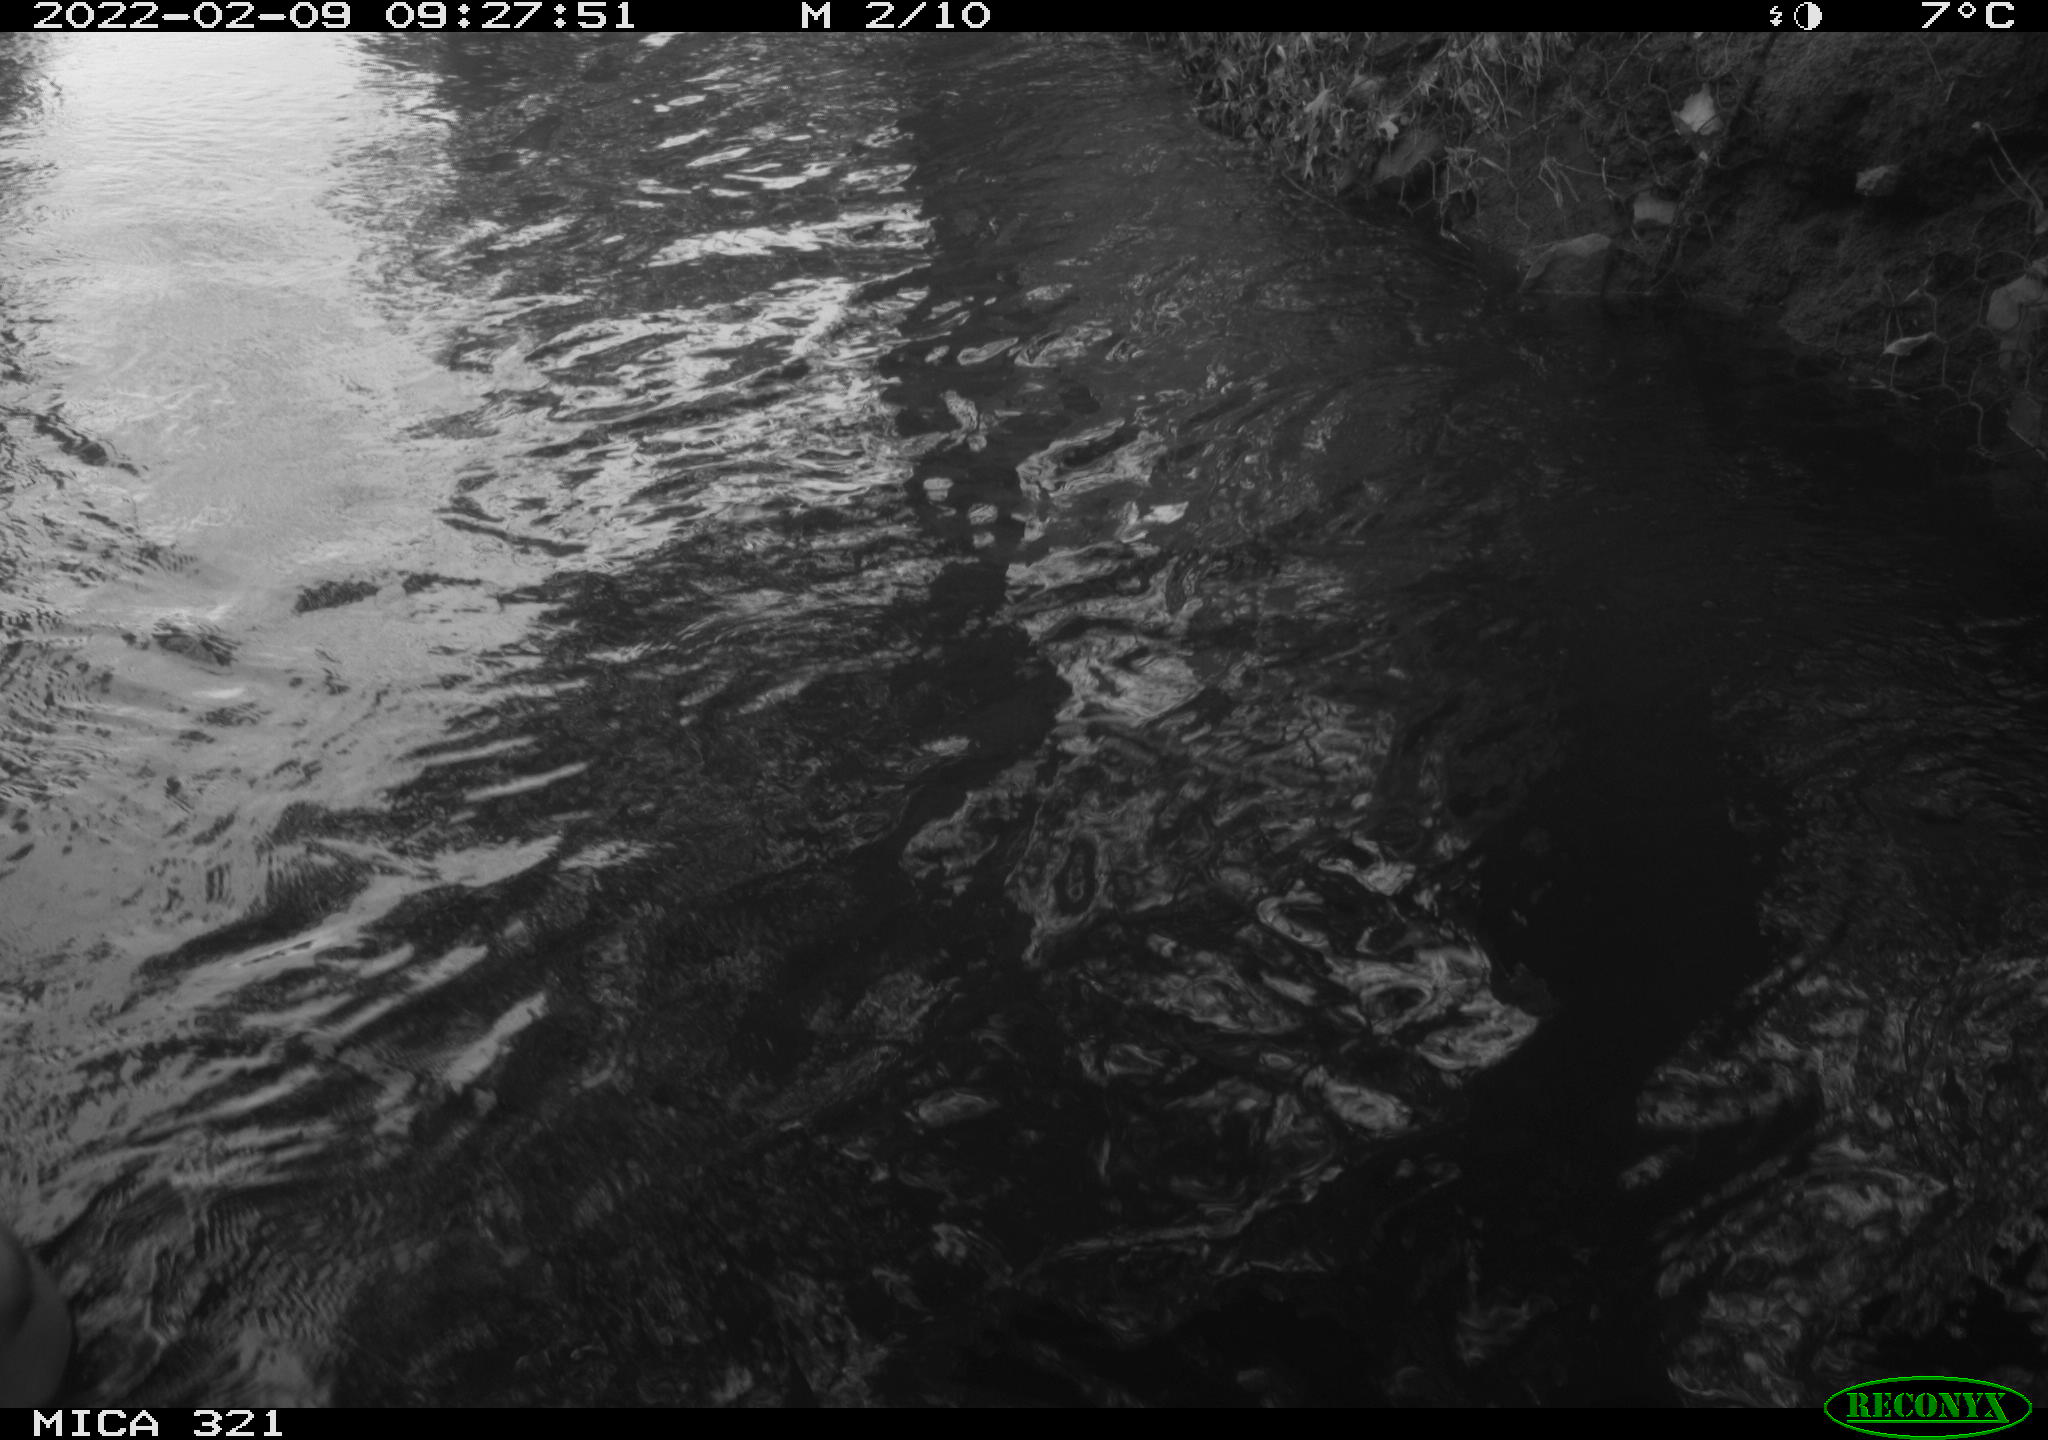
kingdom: Animalia
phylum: Chordata
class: Aves
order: Anseriformes
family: Anatidae
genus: Anas
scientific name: Anas platyrhynchos
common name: Mallard
